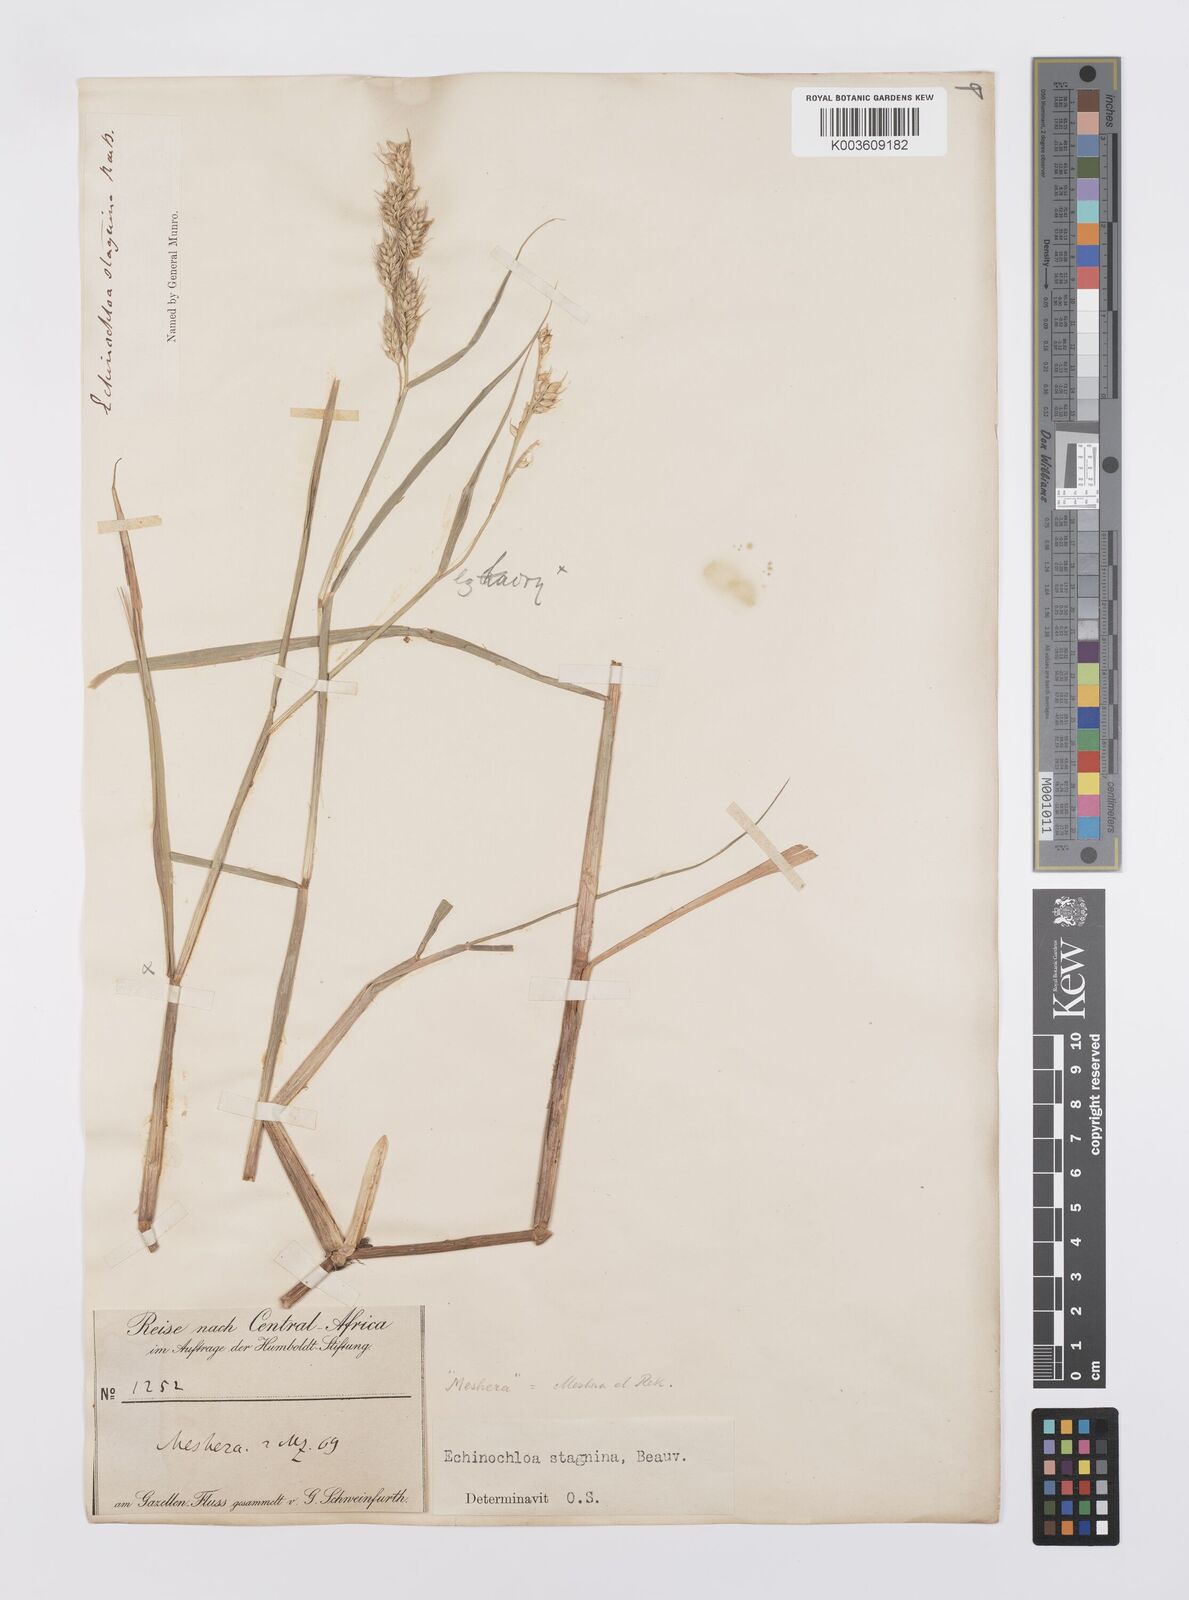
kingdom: Plantae
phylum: Tracheophyta
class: Liliopsida
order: Poales
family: Poaceae
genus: Echinochloa
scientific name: Echinochloa stagnina
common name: Burgu grass
